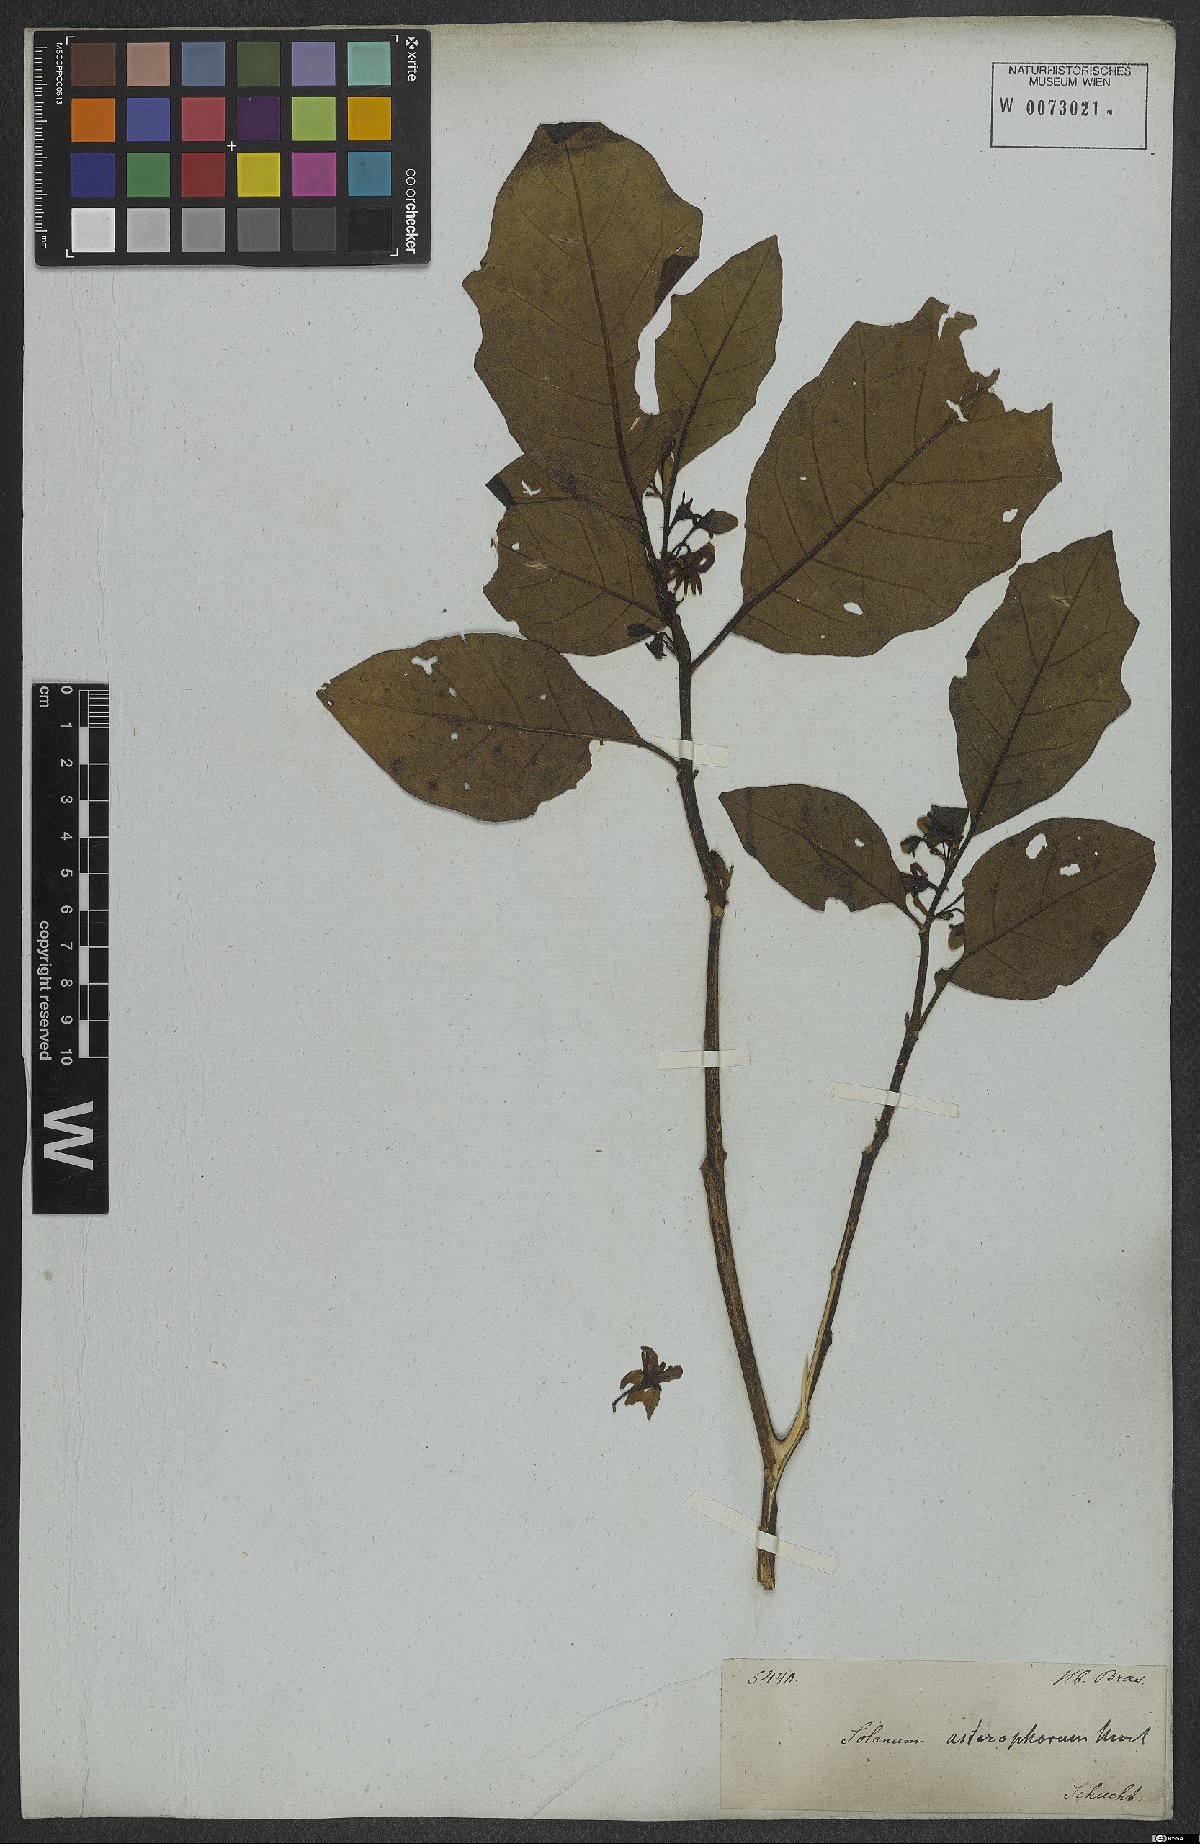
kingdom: Plantae
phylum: Tracheophyta
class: Magnoliopsida
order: Solanales
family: Solanaceae
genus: Solanum
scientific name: Solanum asterophorum
